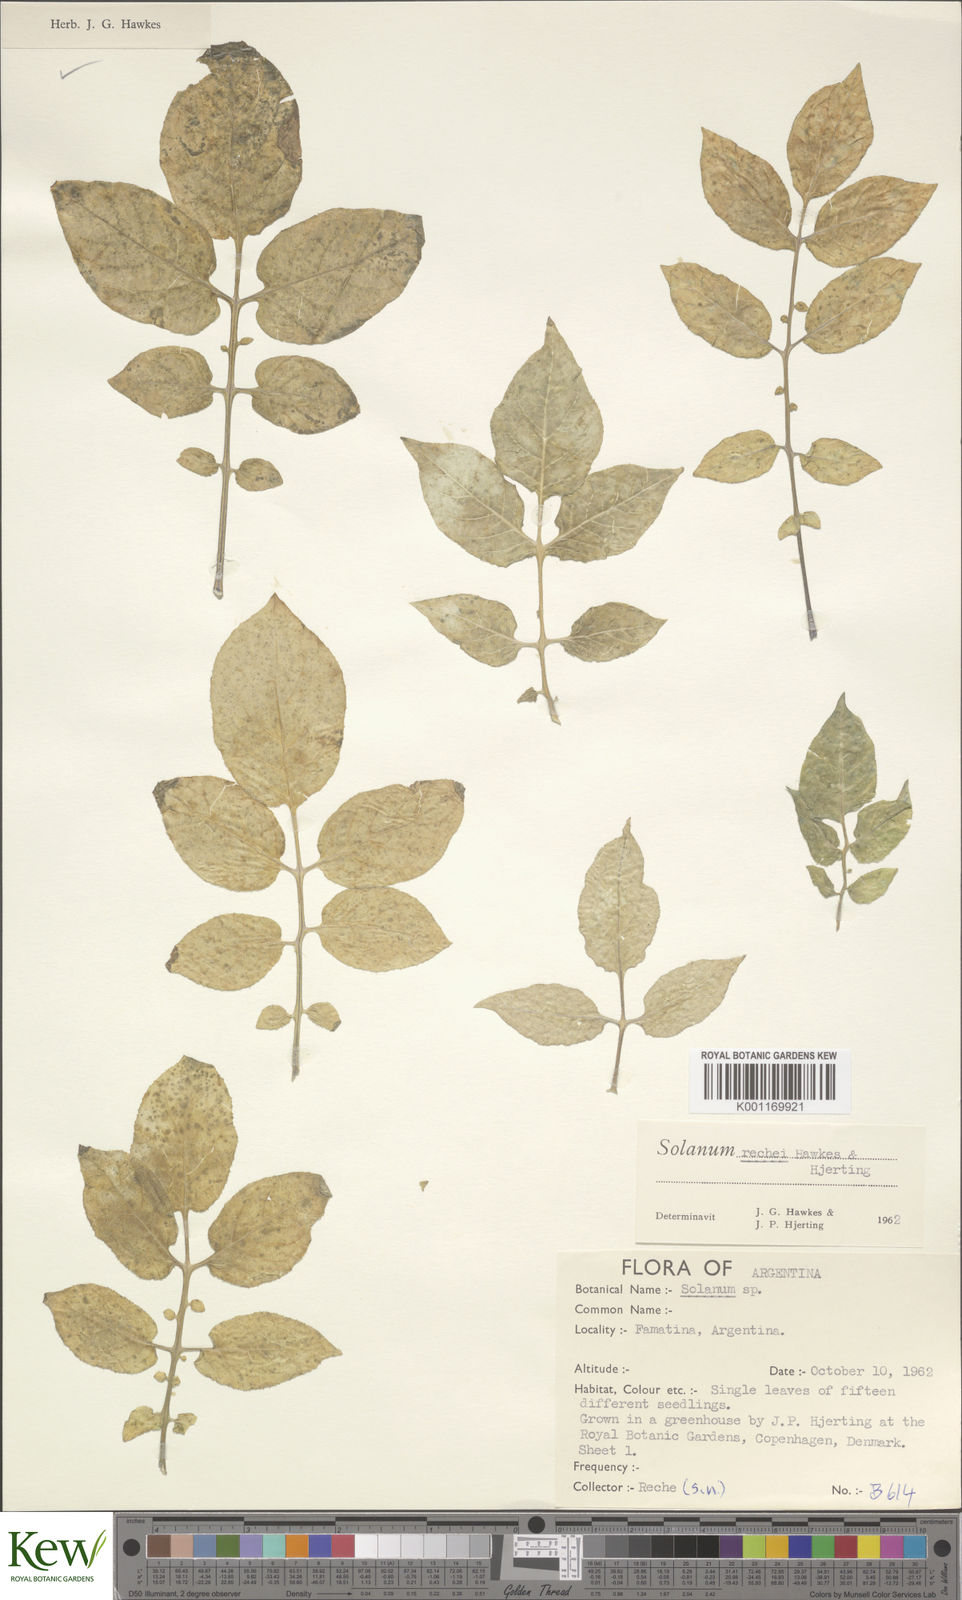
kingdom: Plantae
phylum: Tracheophyta
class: Magnoliopsida
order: Solanales
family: Solanaceae
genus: Solanum
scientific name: Solanum rechei
